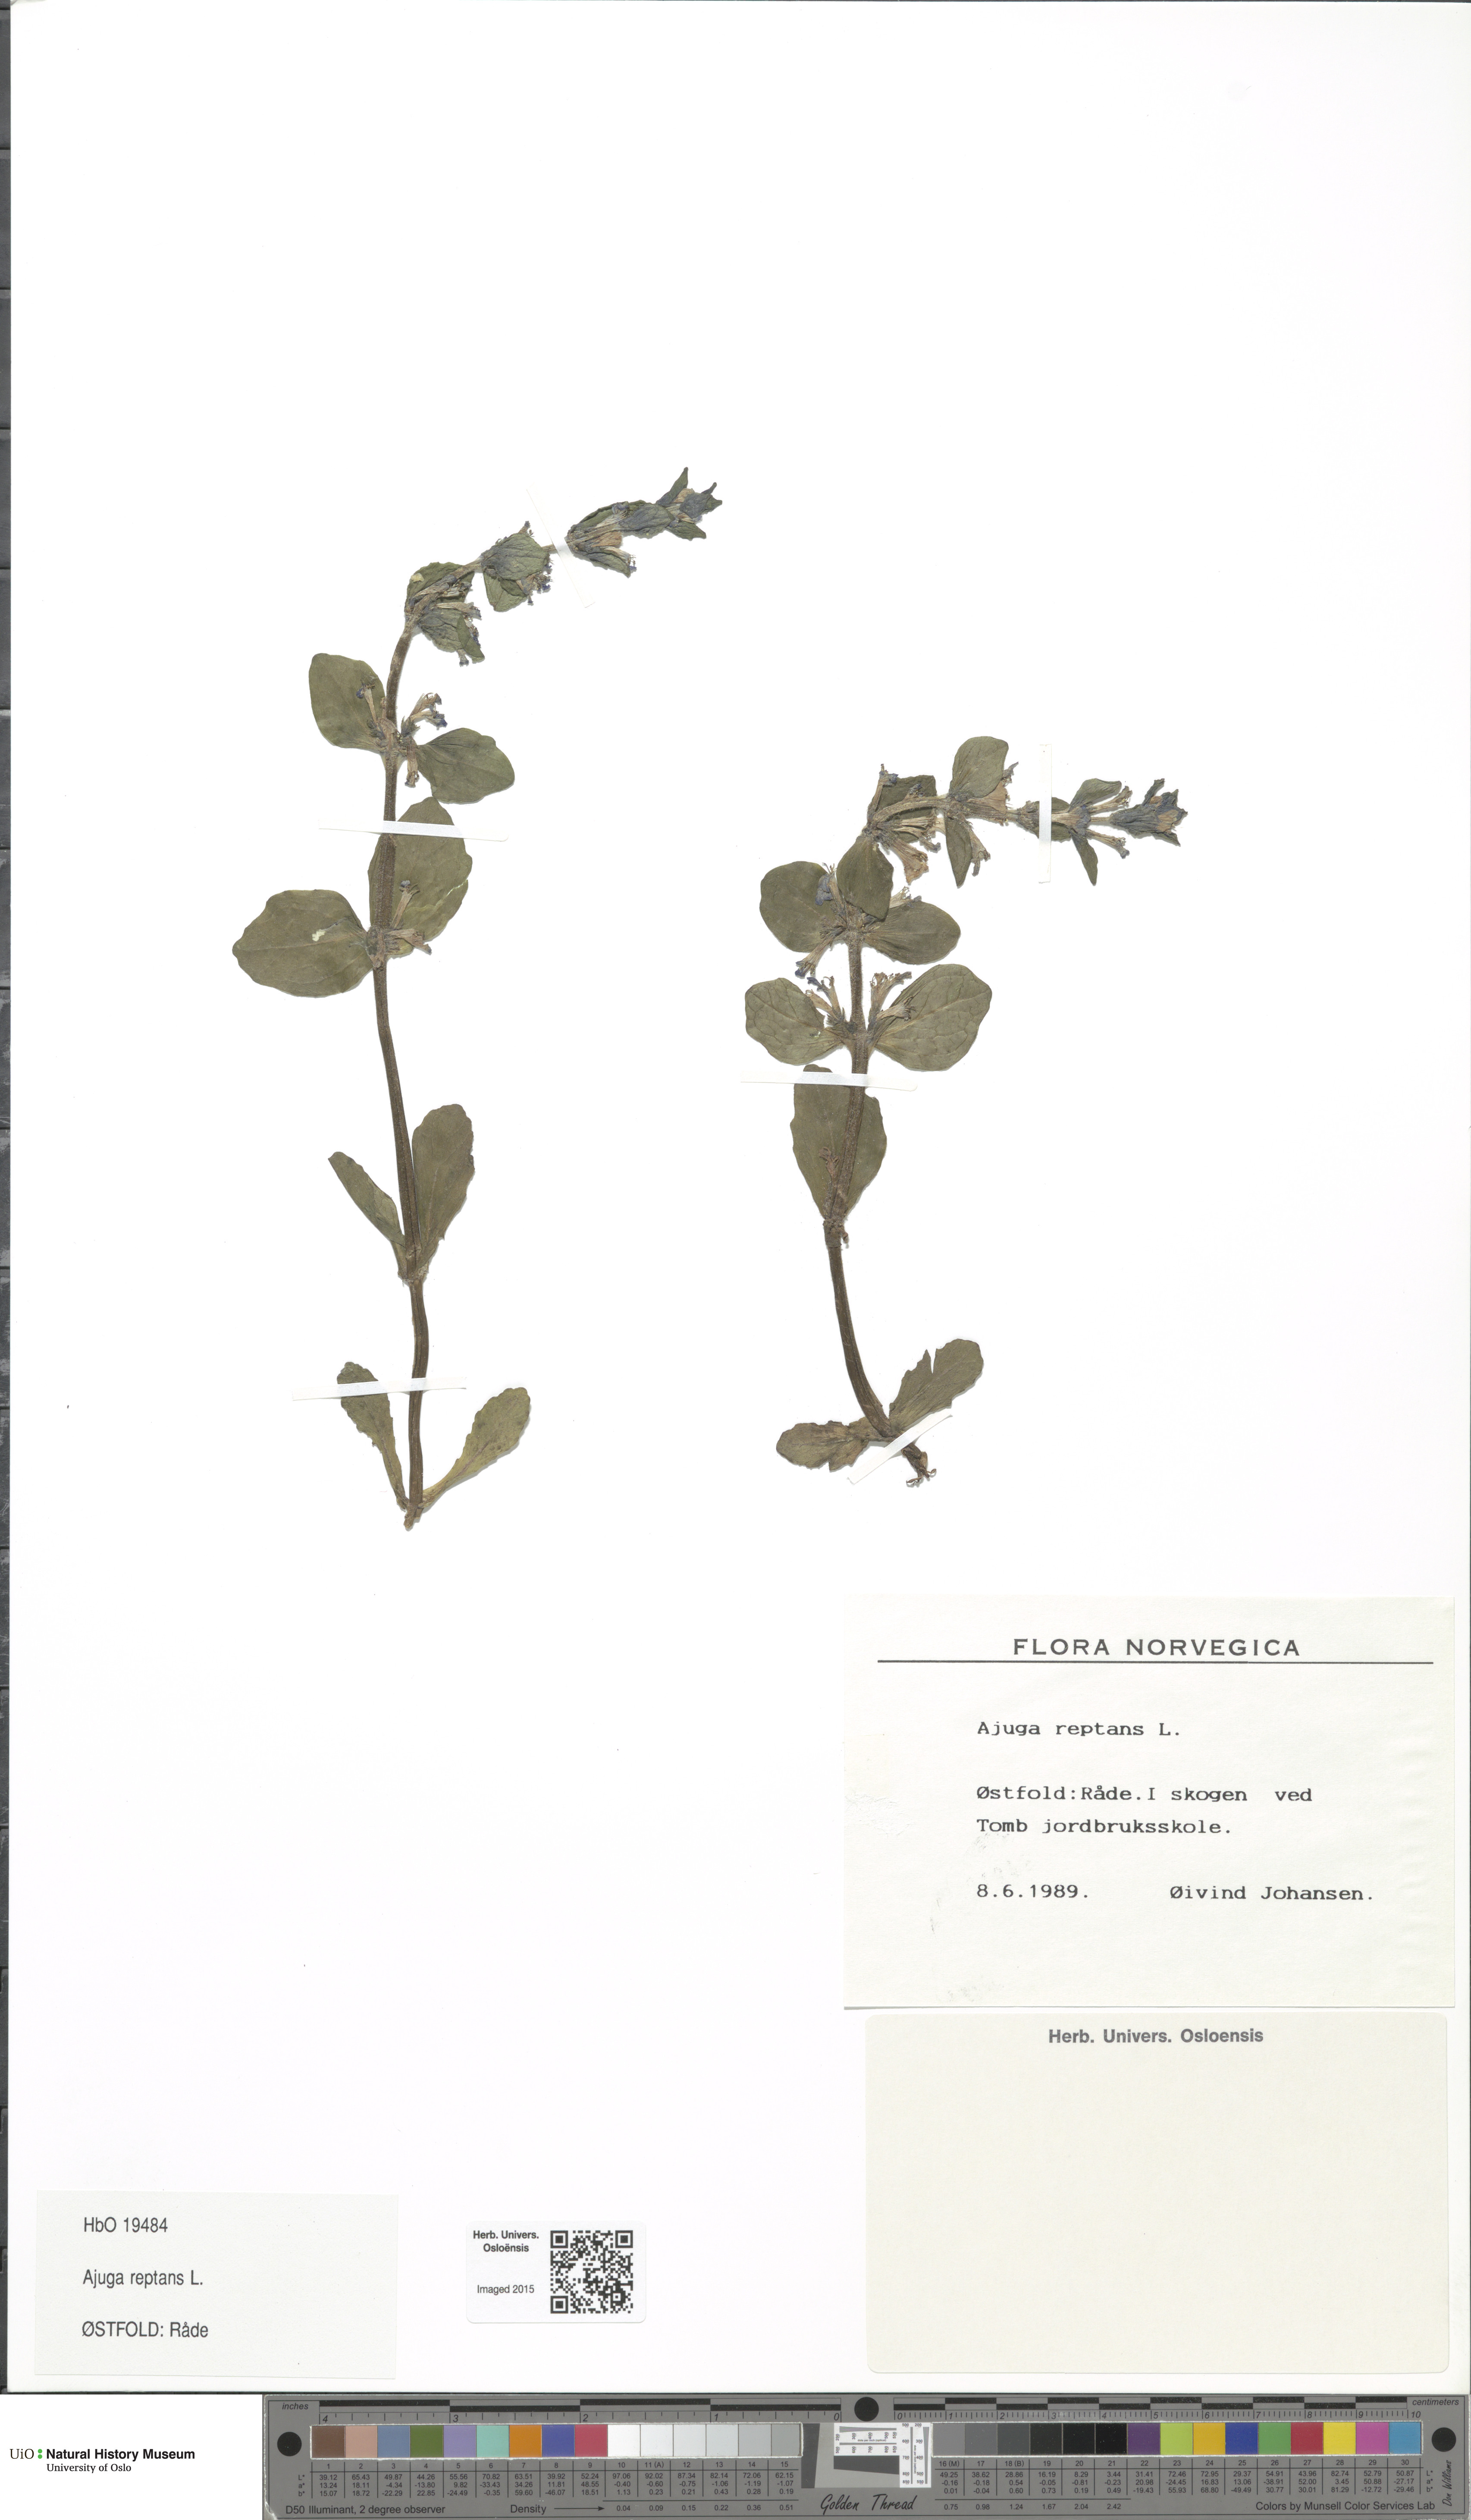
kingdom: Plantae
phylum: Tracheophyta
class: Liliopsida
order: Asparagales
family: Orchidaceae
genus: Dactylorhiza
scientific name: Dactylorhiza majalis
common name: Marsh orchid
